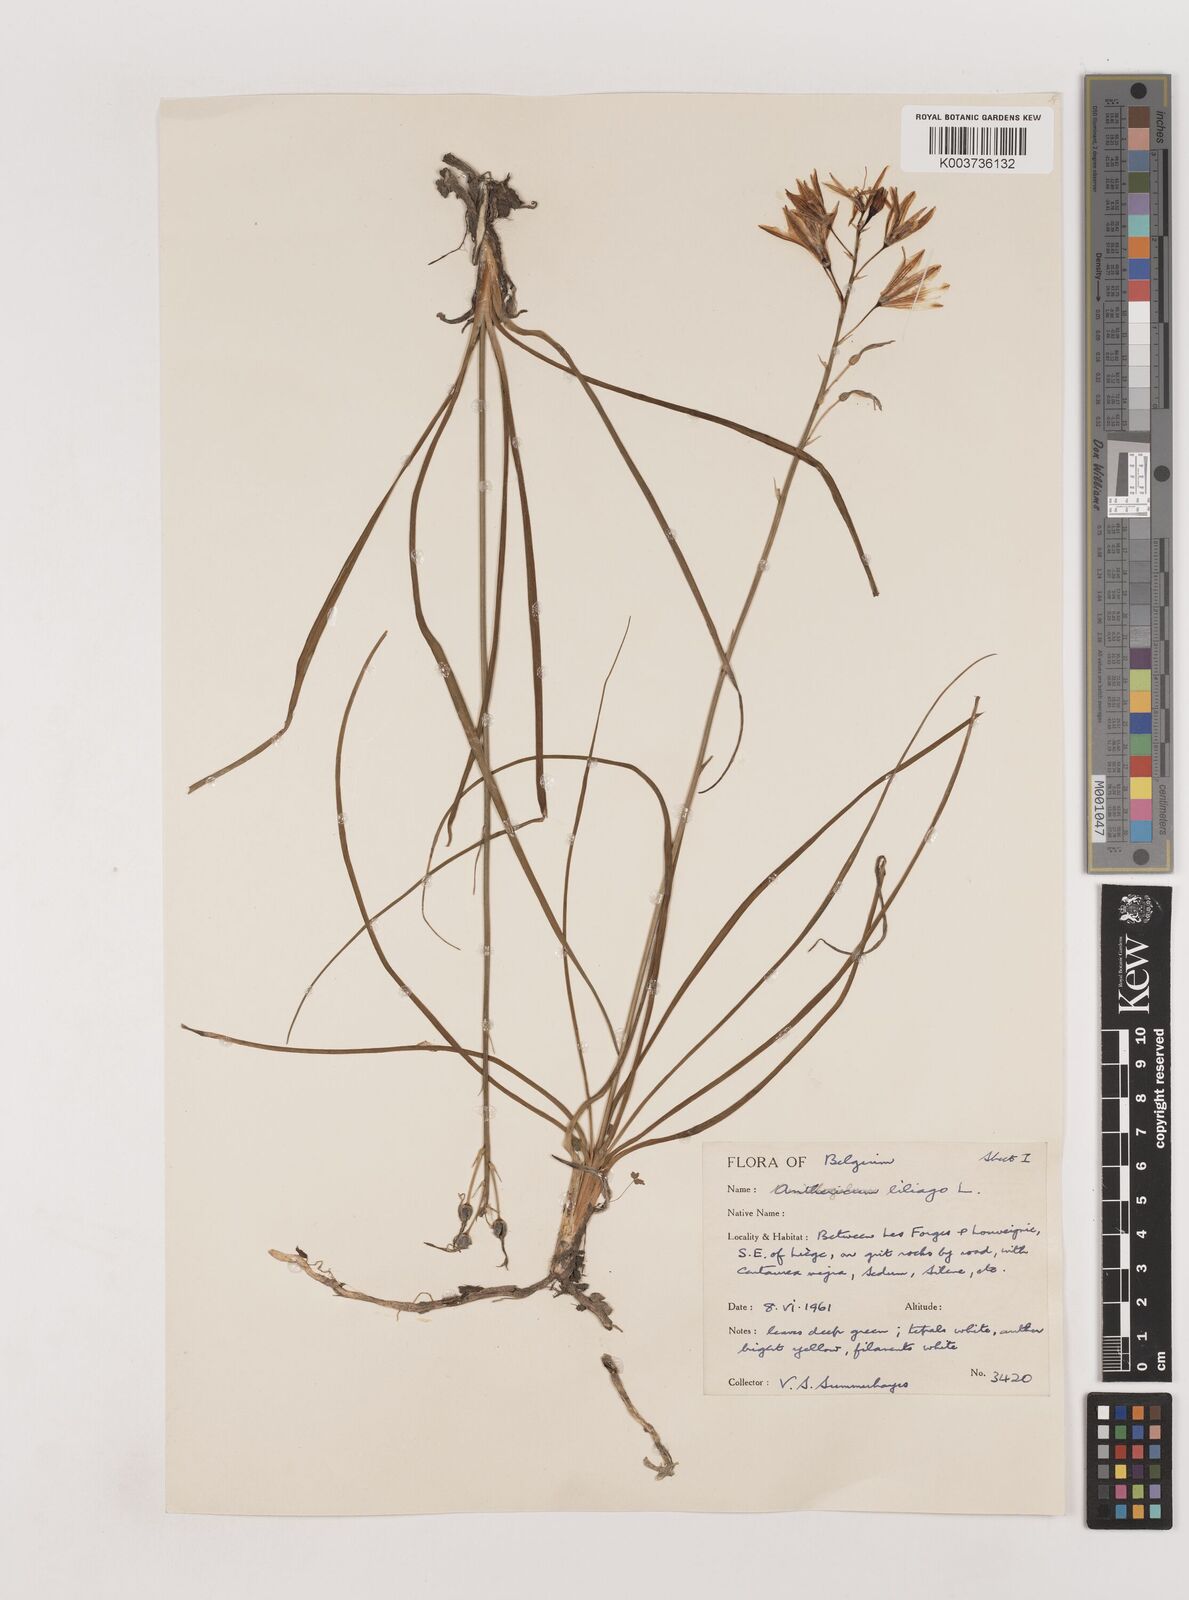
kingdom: Plantae
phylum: Tracheophyta
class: Liliopsida
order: Asparagales
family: Asparagaceae
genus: Anthericum
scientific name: Anthericum liliago
